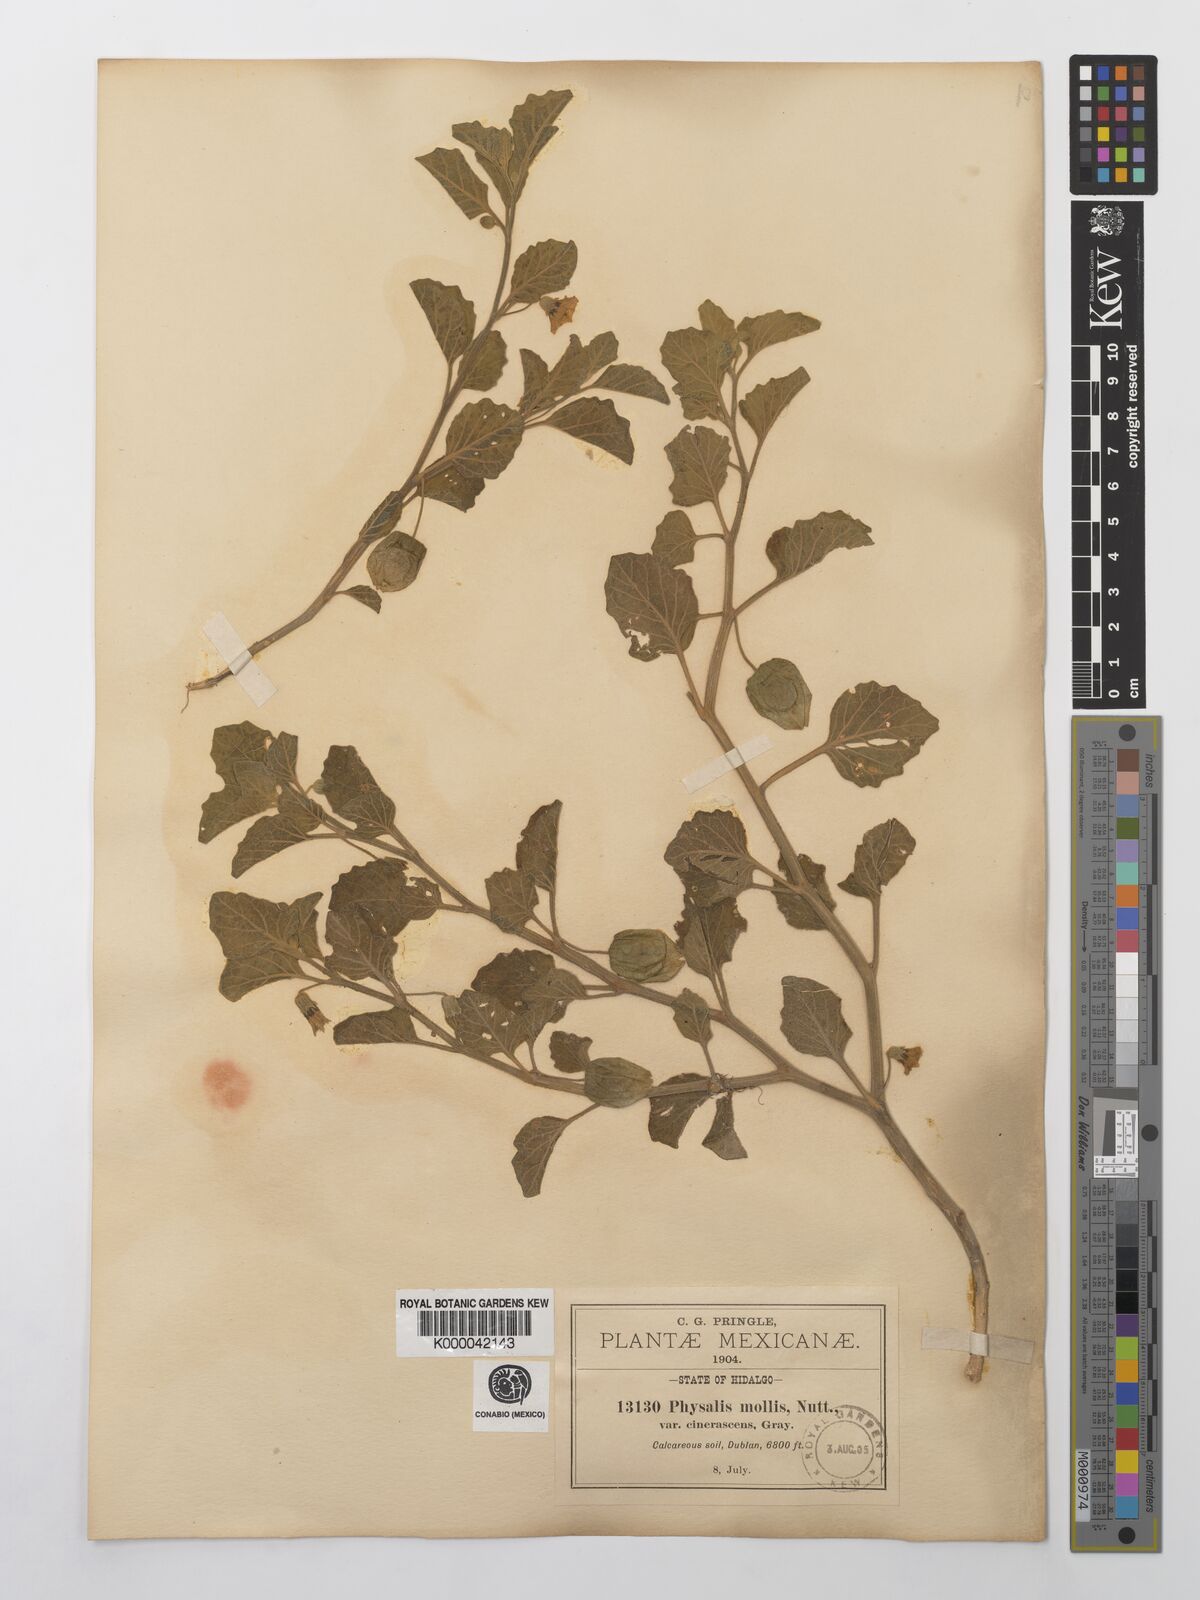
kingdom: Plantae
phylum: Tracheophyta
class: Magnoliopsida
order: Solanales
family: Solanaceae
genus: Physalis
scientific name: Physalis cinerascens
